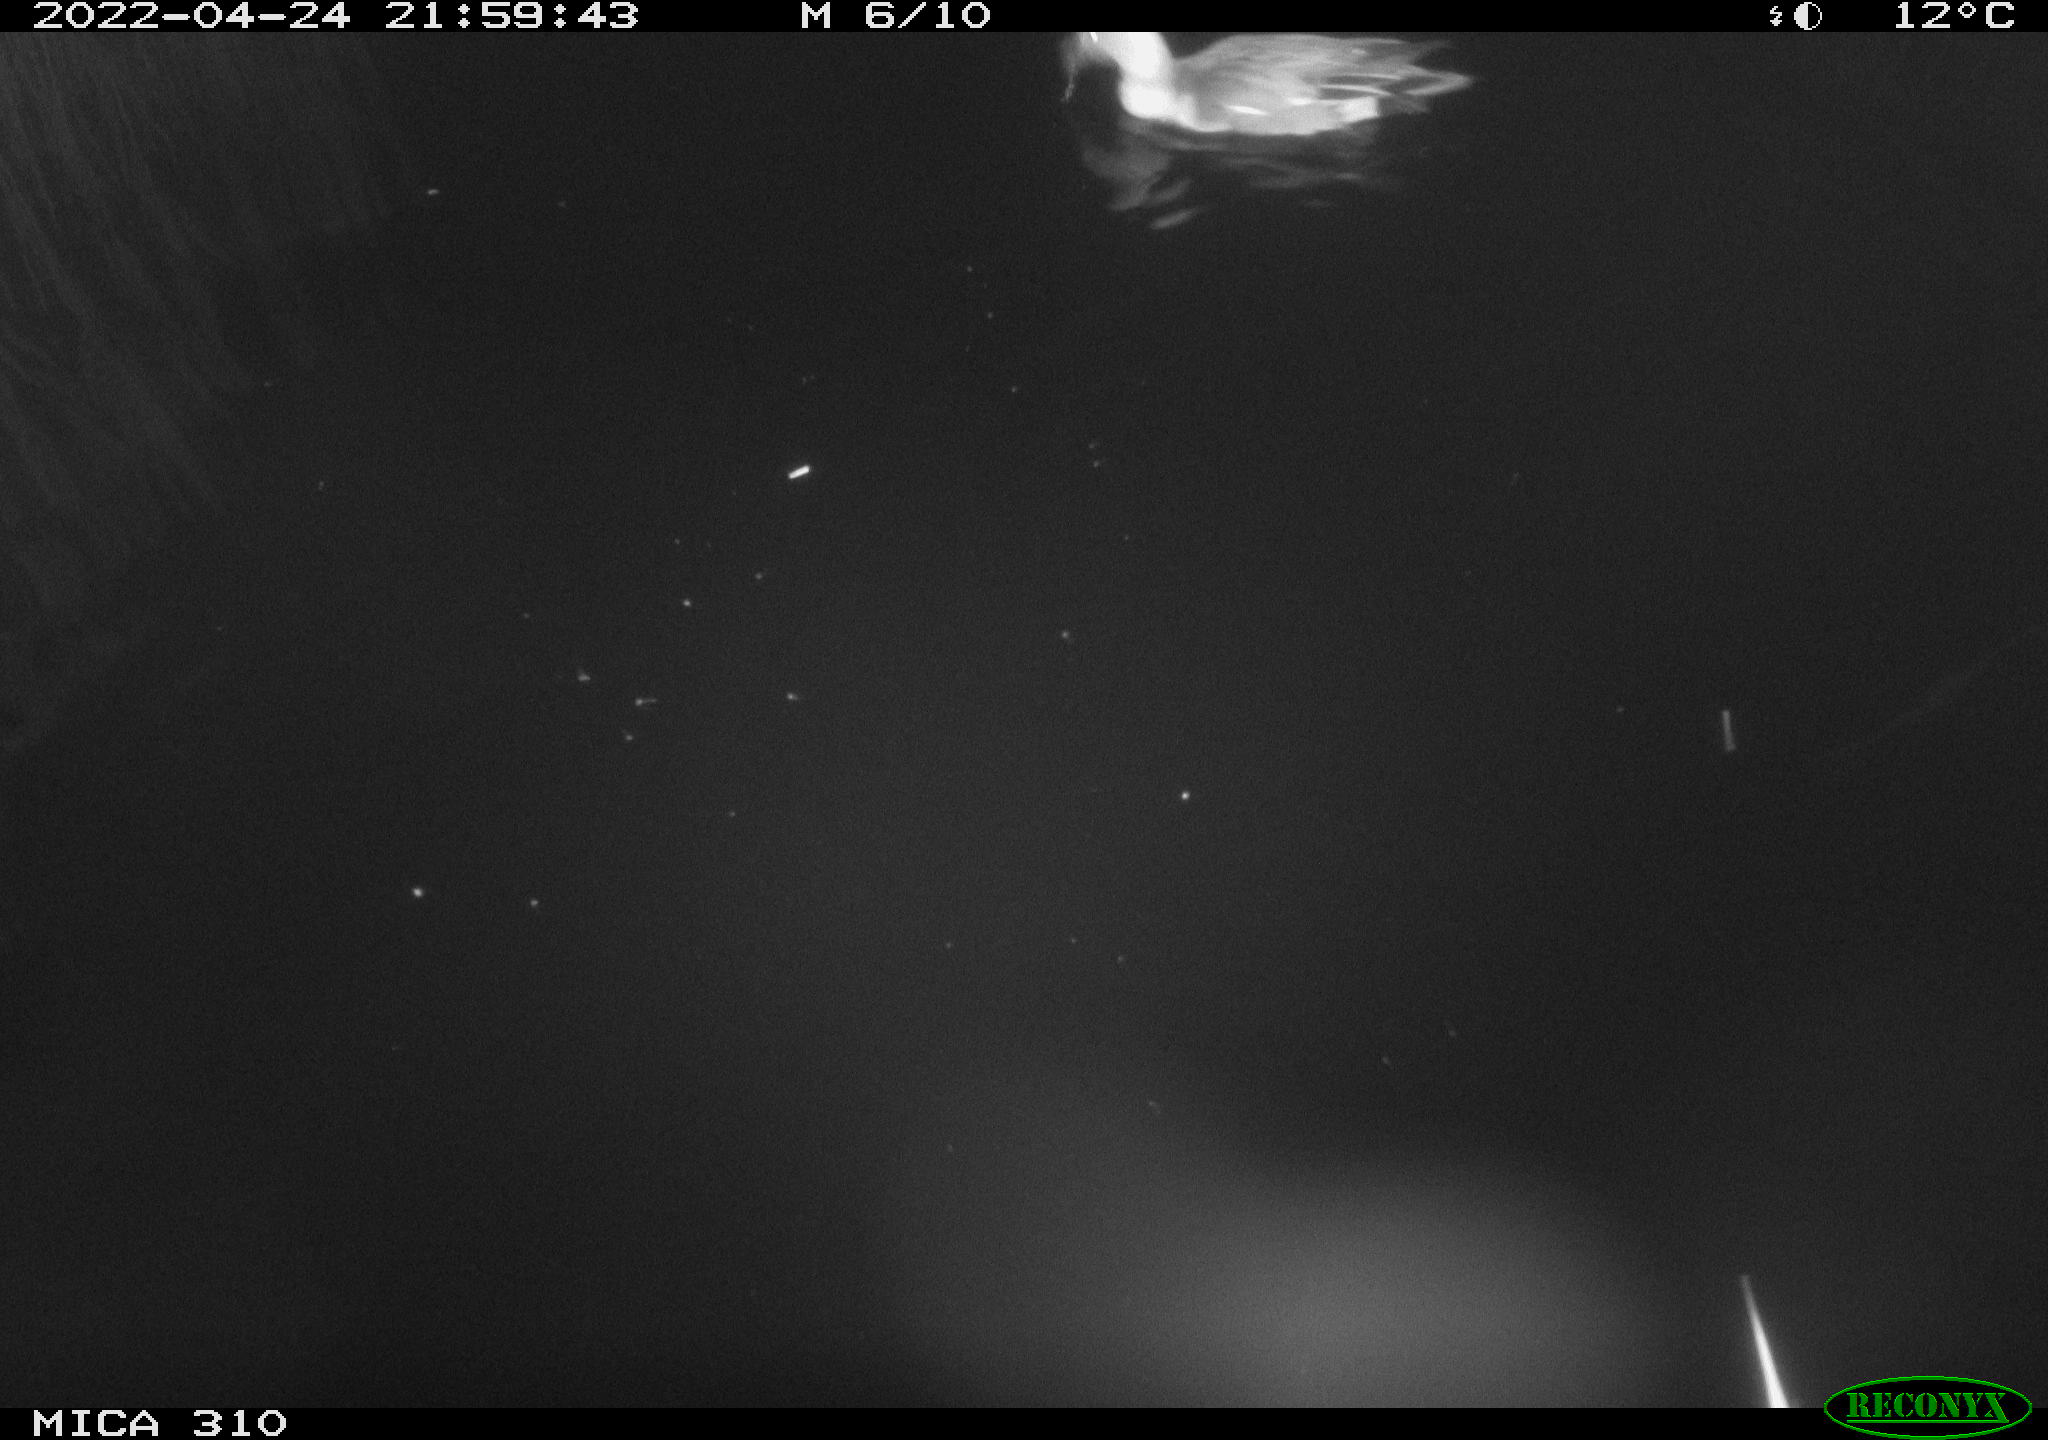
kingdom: Animalia
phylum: Chordata
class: Aves
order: Anseriformes
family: Anatidae
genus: Anas
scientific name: Anas platyrhynchos
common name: Mallard
